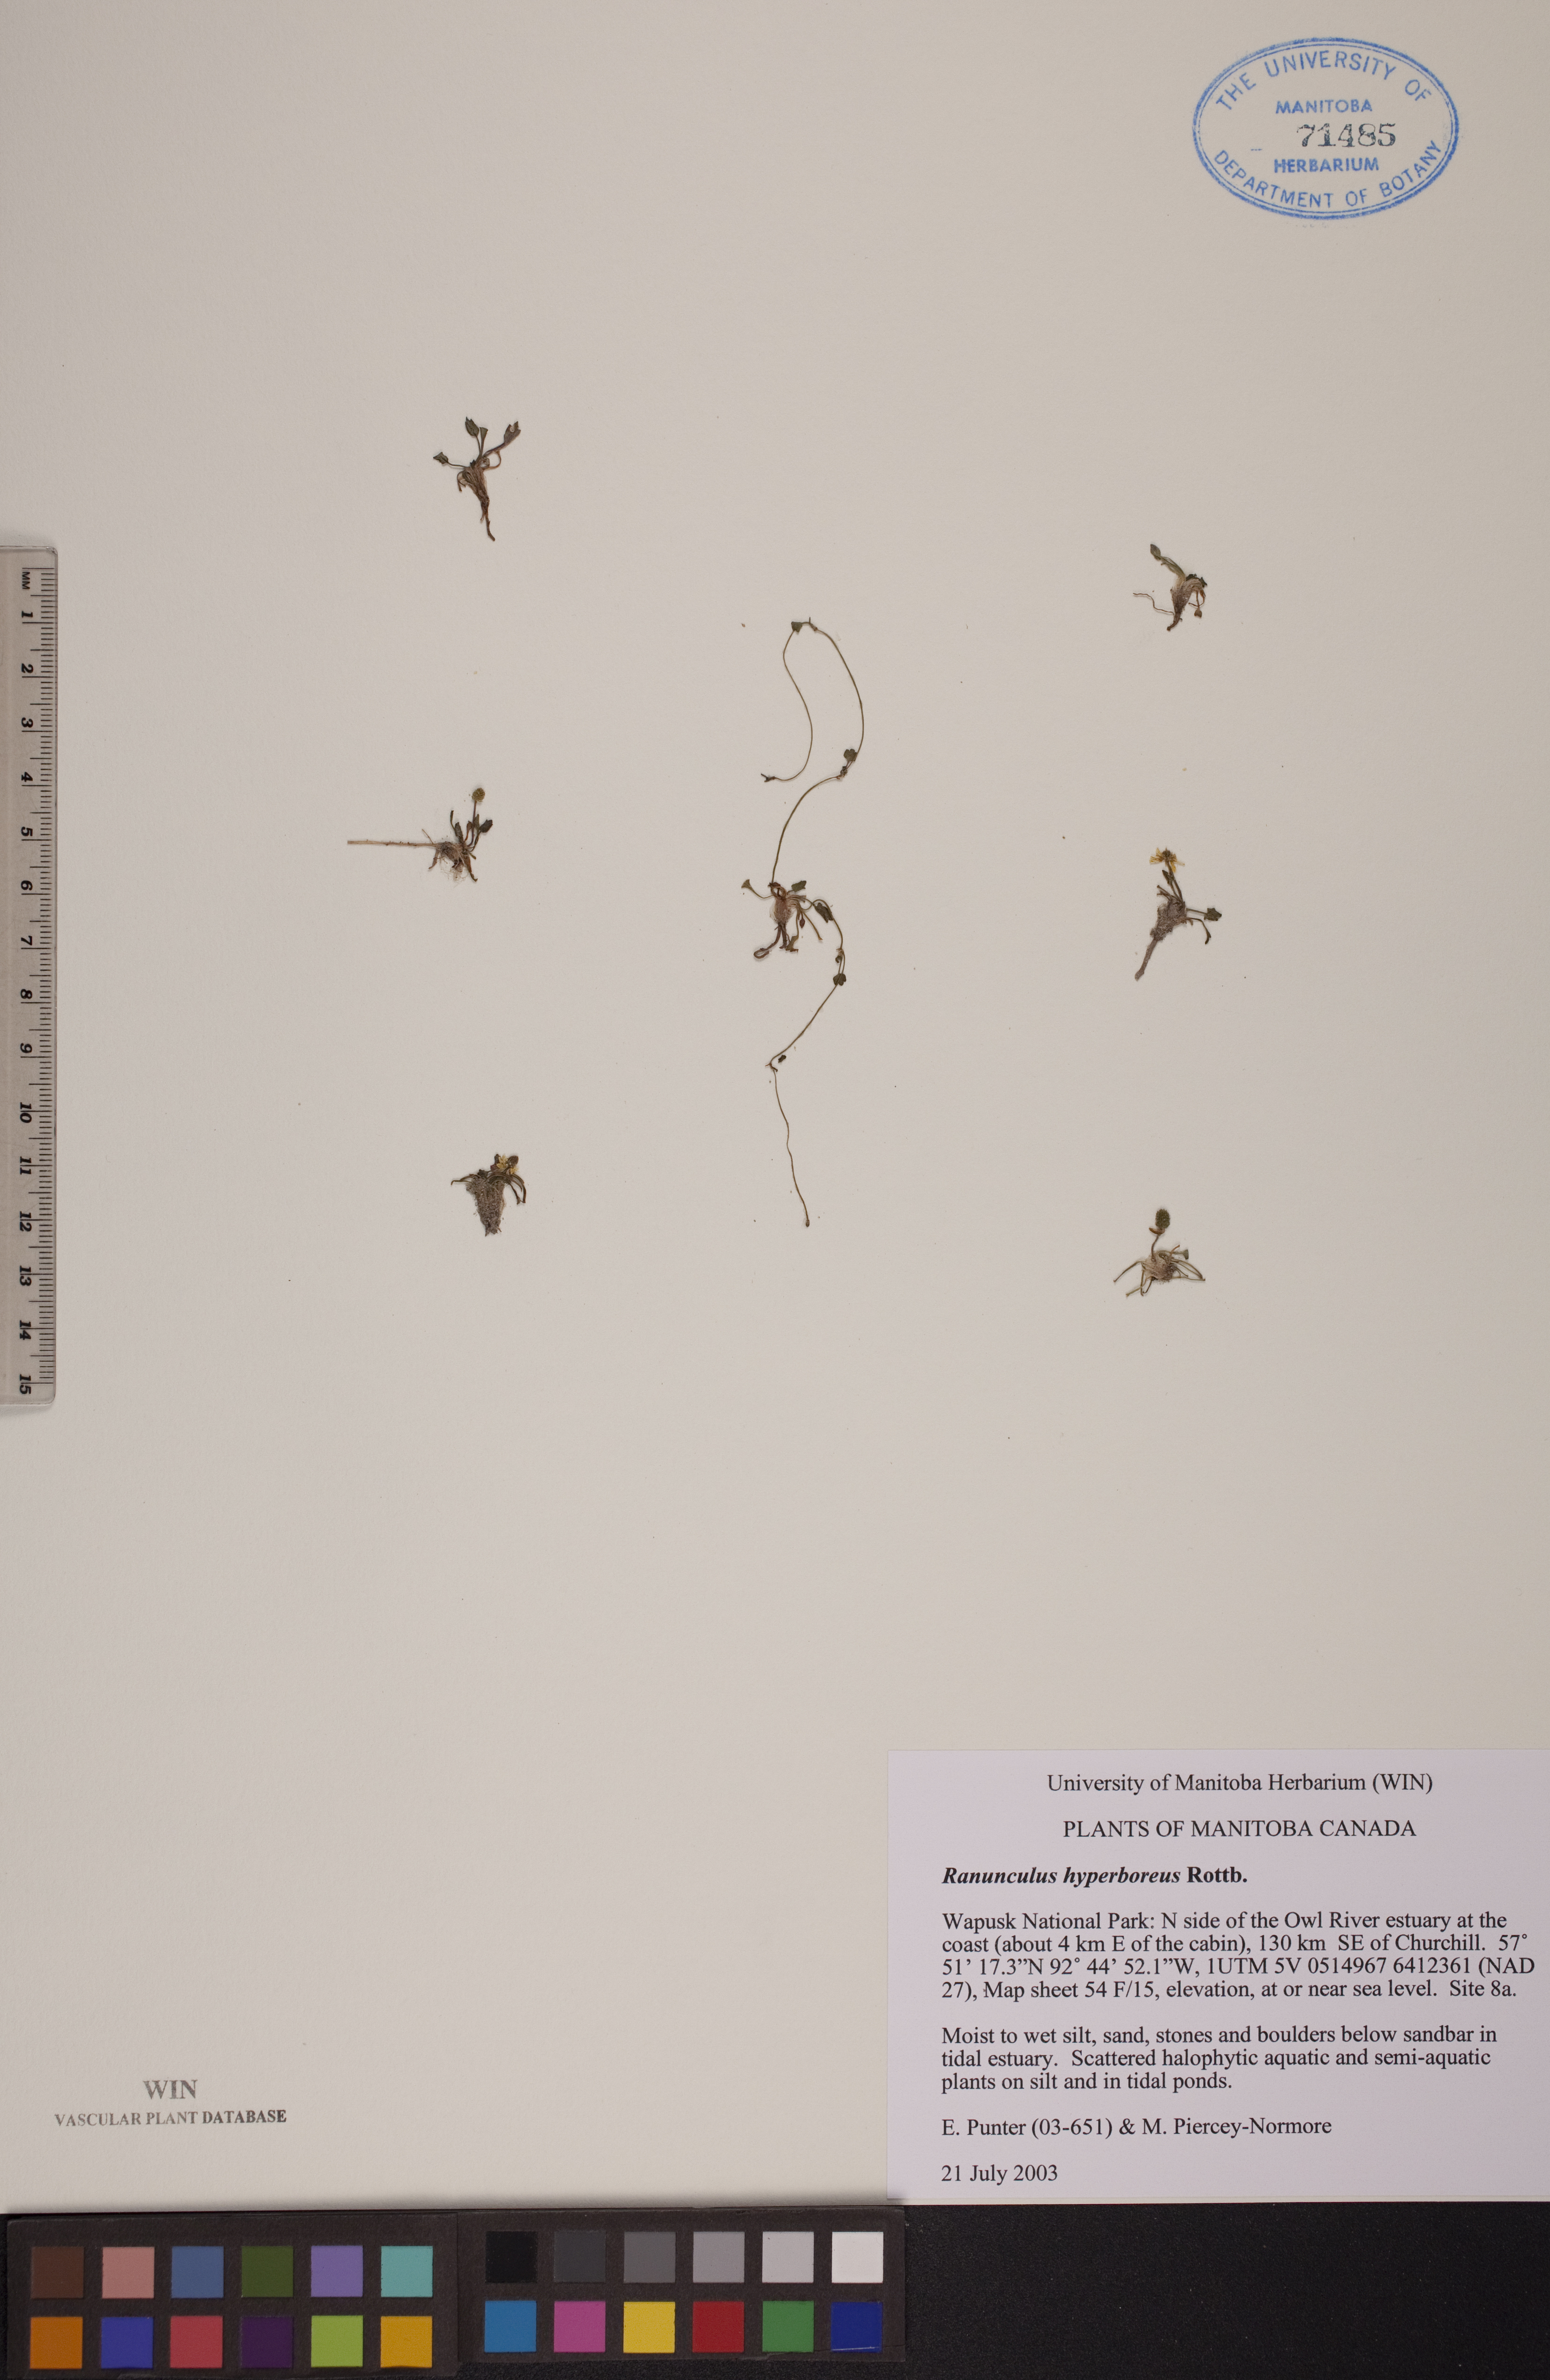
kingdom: Plantae
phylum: Tracheophyta
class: Magnoliopsida
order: Ranunculales
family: Ranunculaceae
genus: Ranunculus
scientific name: Ranunculus hyperboreus
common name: Arctic buttercup
